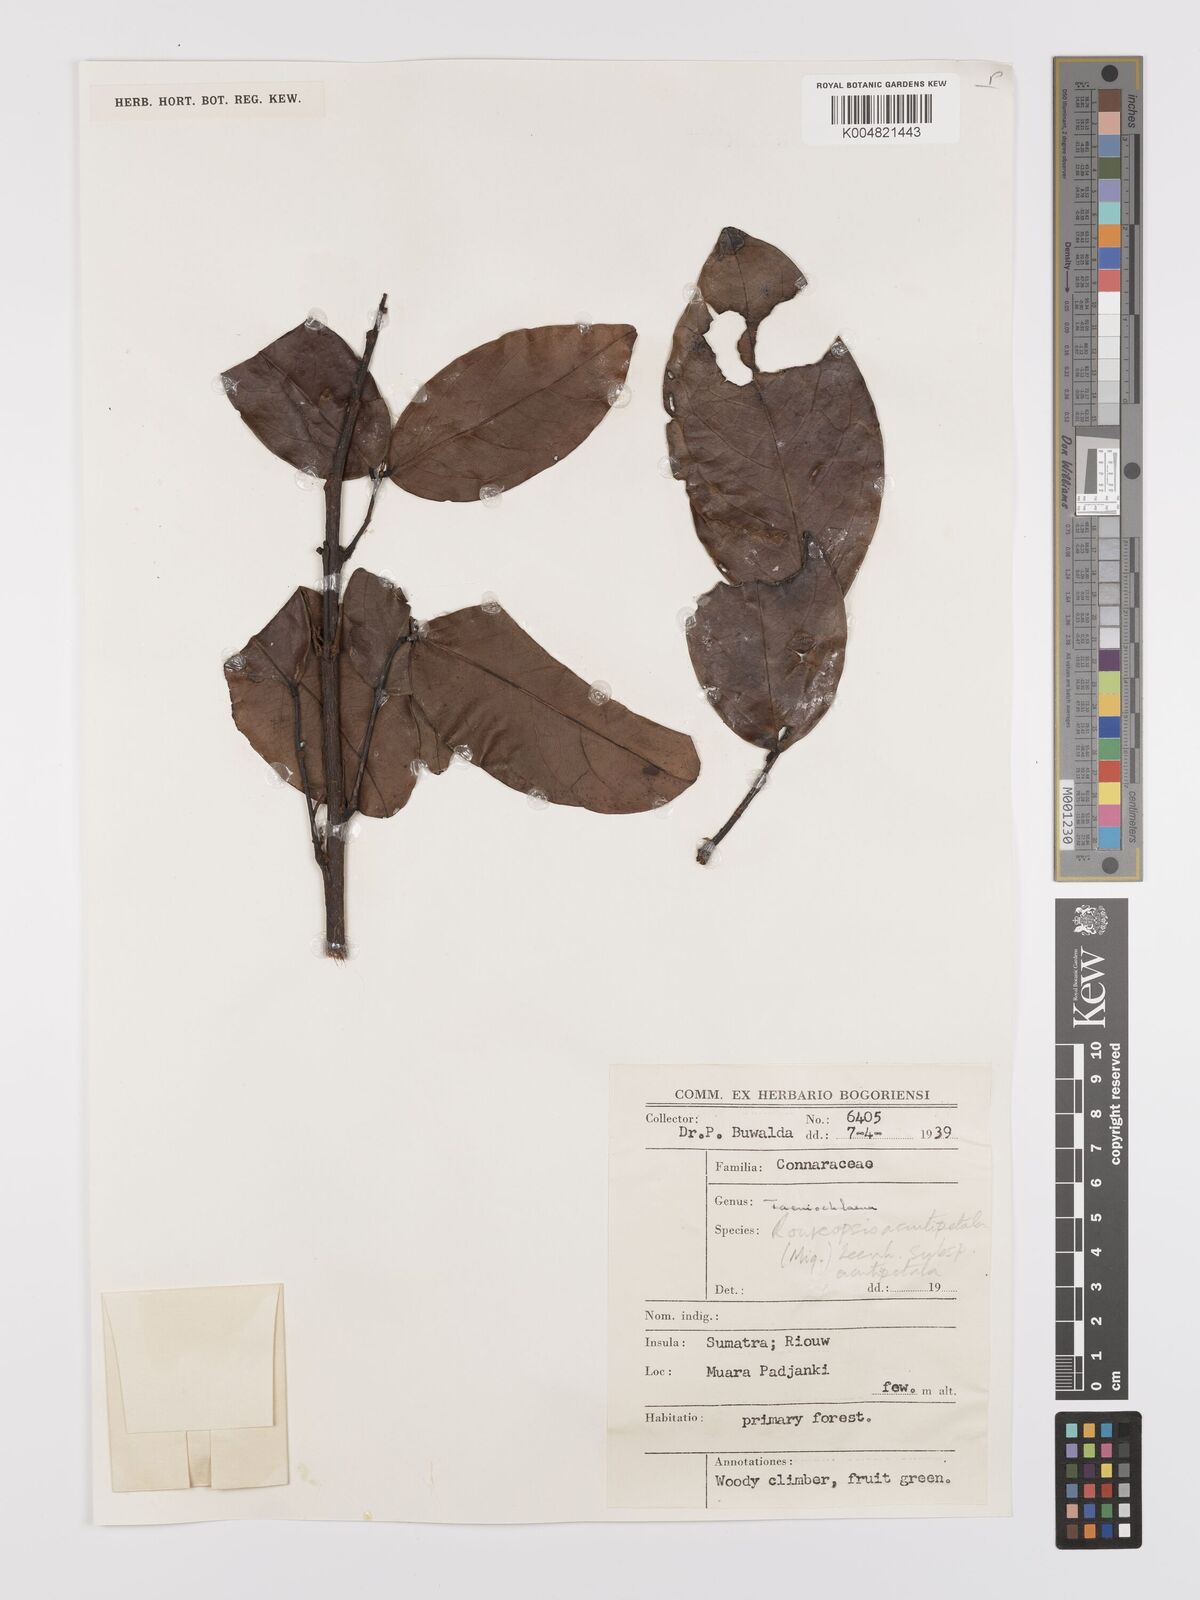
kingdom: Plantae
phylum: Tracheophyta
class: Magnoliopsida
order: Oxalidales
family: Connaraceae
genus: Rourea
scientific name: Rourea acutipetala
